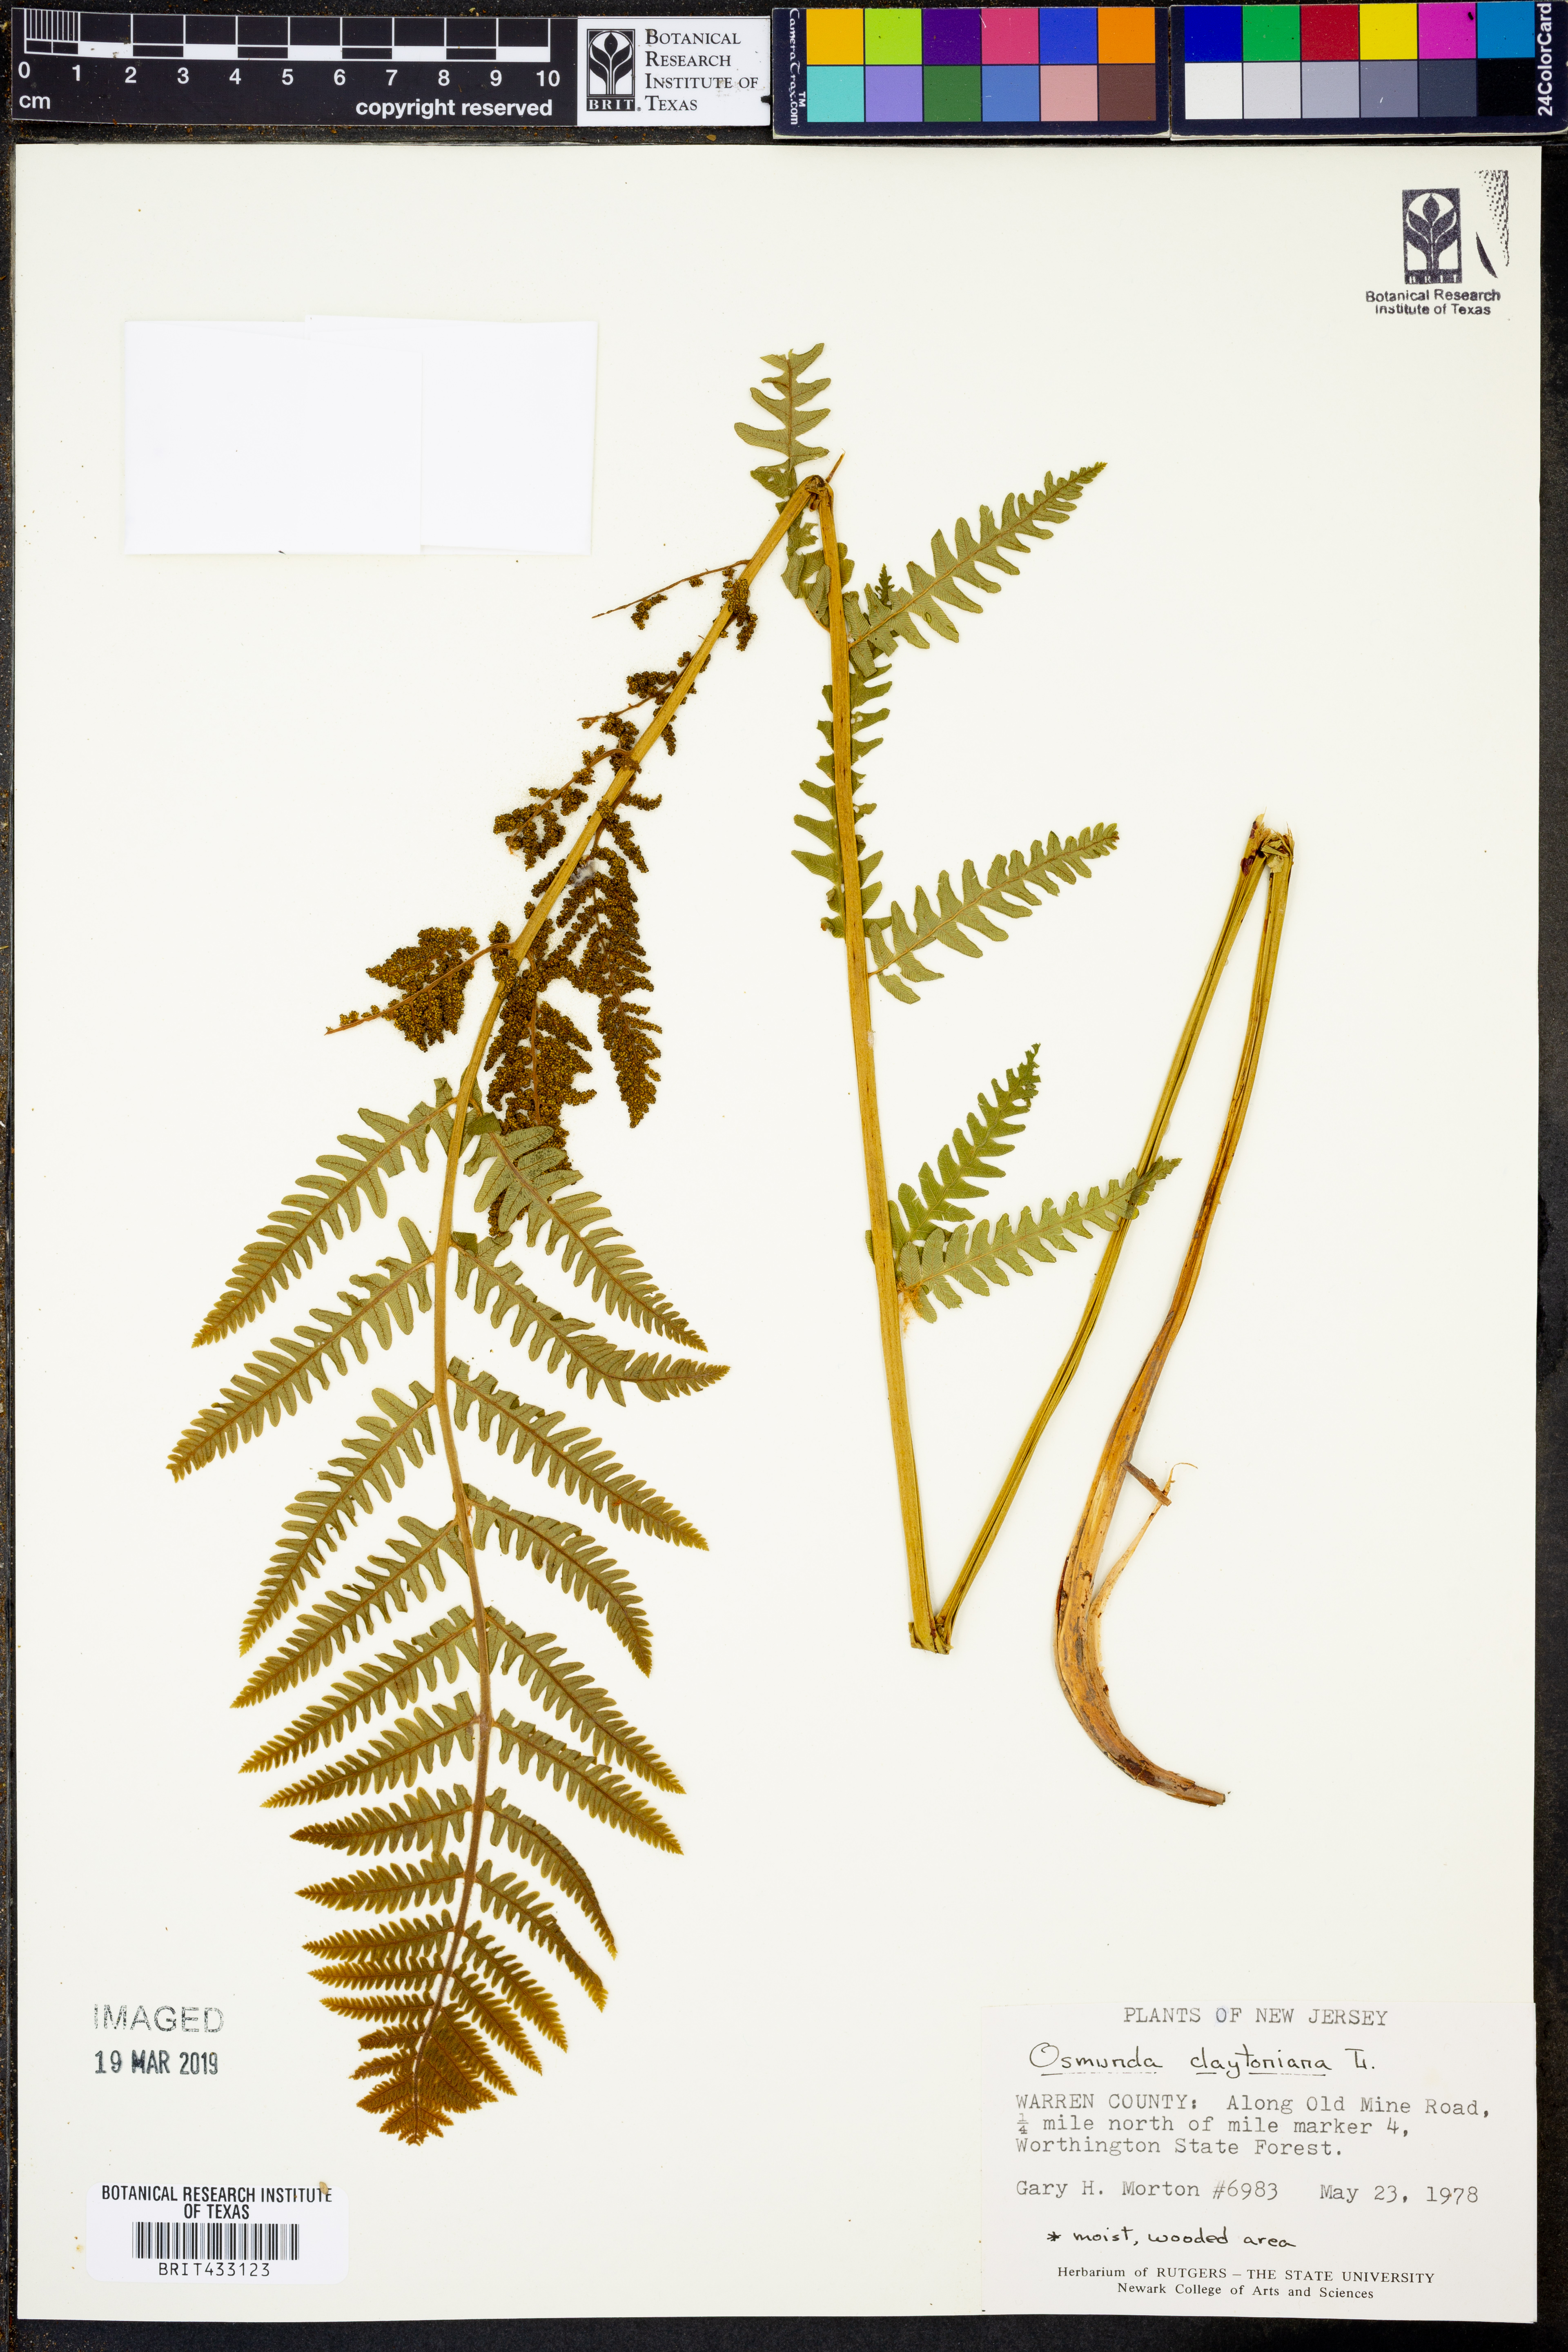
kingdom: Plantae
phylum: Tracheophyta
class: Polypodiopsida
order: Osmundales
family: Osmundaceae
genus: Claytosmunda
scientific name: Claytosmunda claytoniana
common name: Clayton's fern
